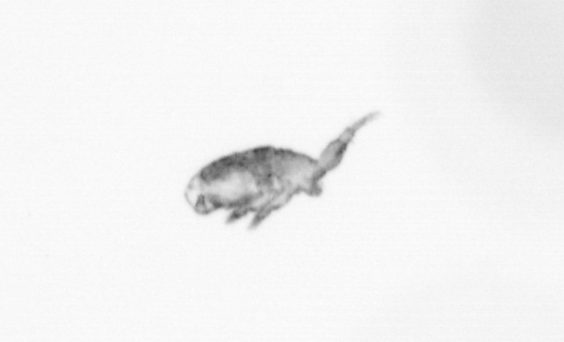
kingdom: Animalia
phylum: Arthropoda
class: Maxillopoda
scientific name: Maxillopoda
